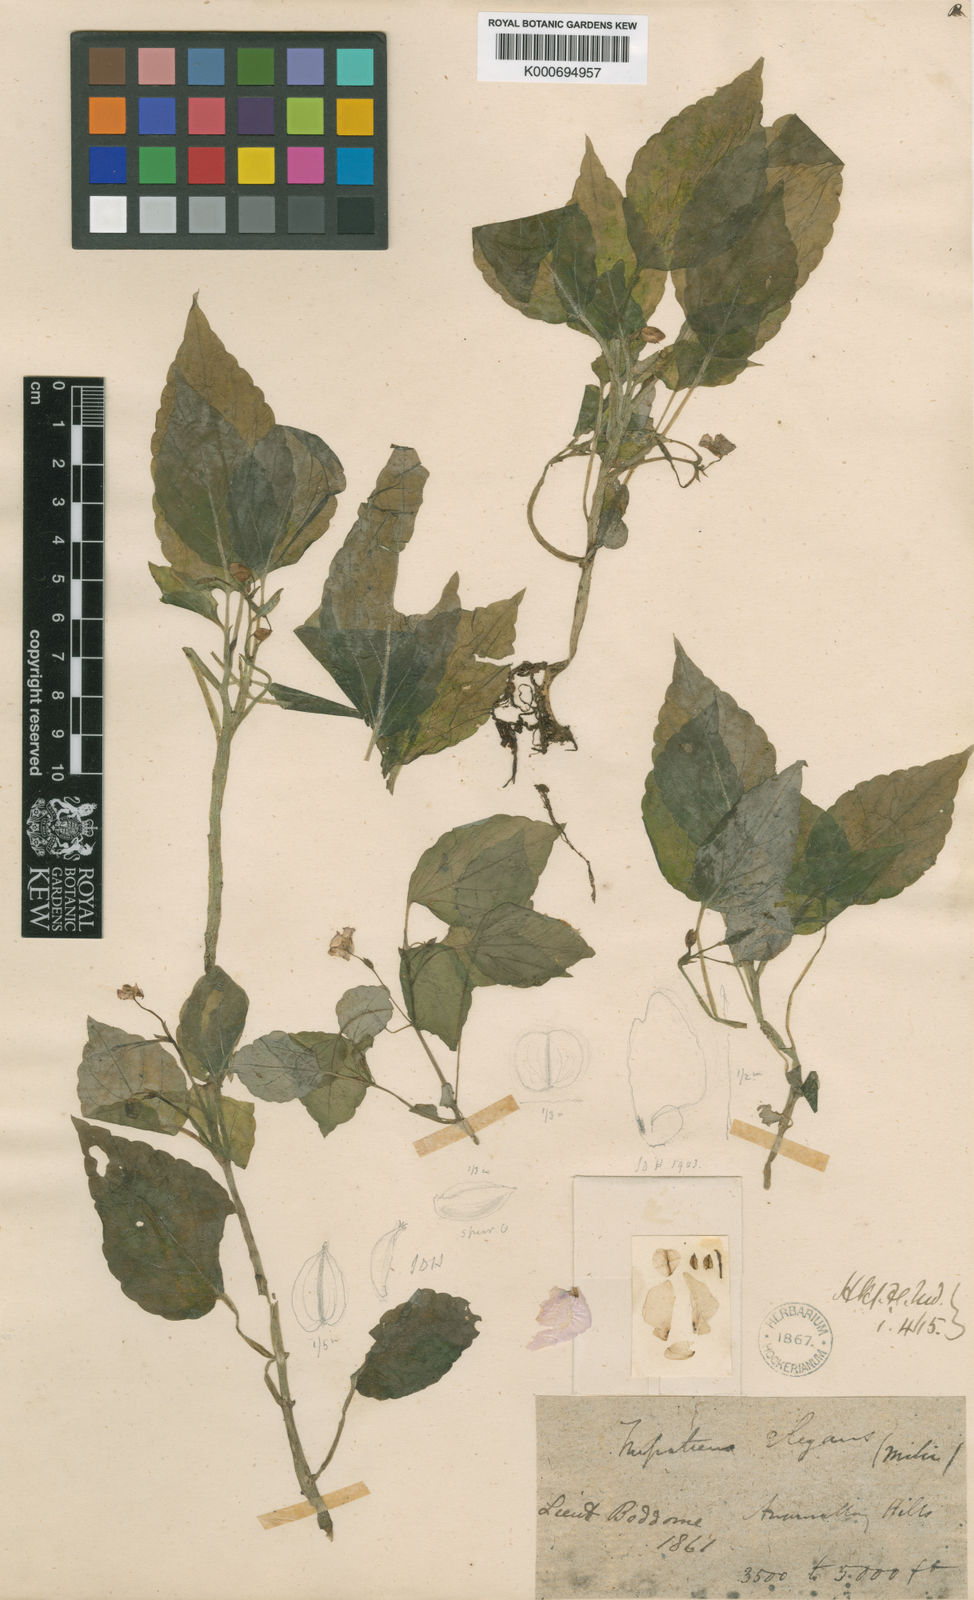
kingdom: Plantae
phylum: Tracheophyta
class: Magnoliopsida
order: Ericales
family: Balsaminaceae
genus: Impatiens
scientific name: Impatiens elegans
